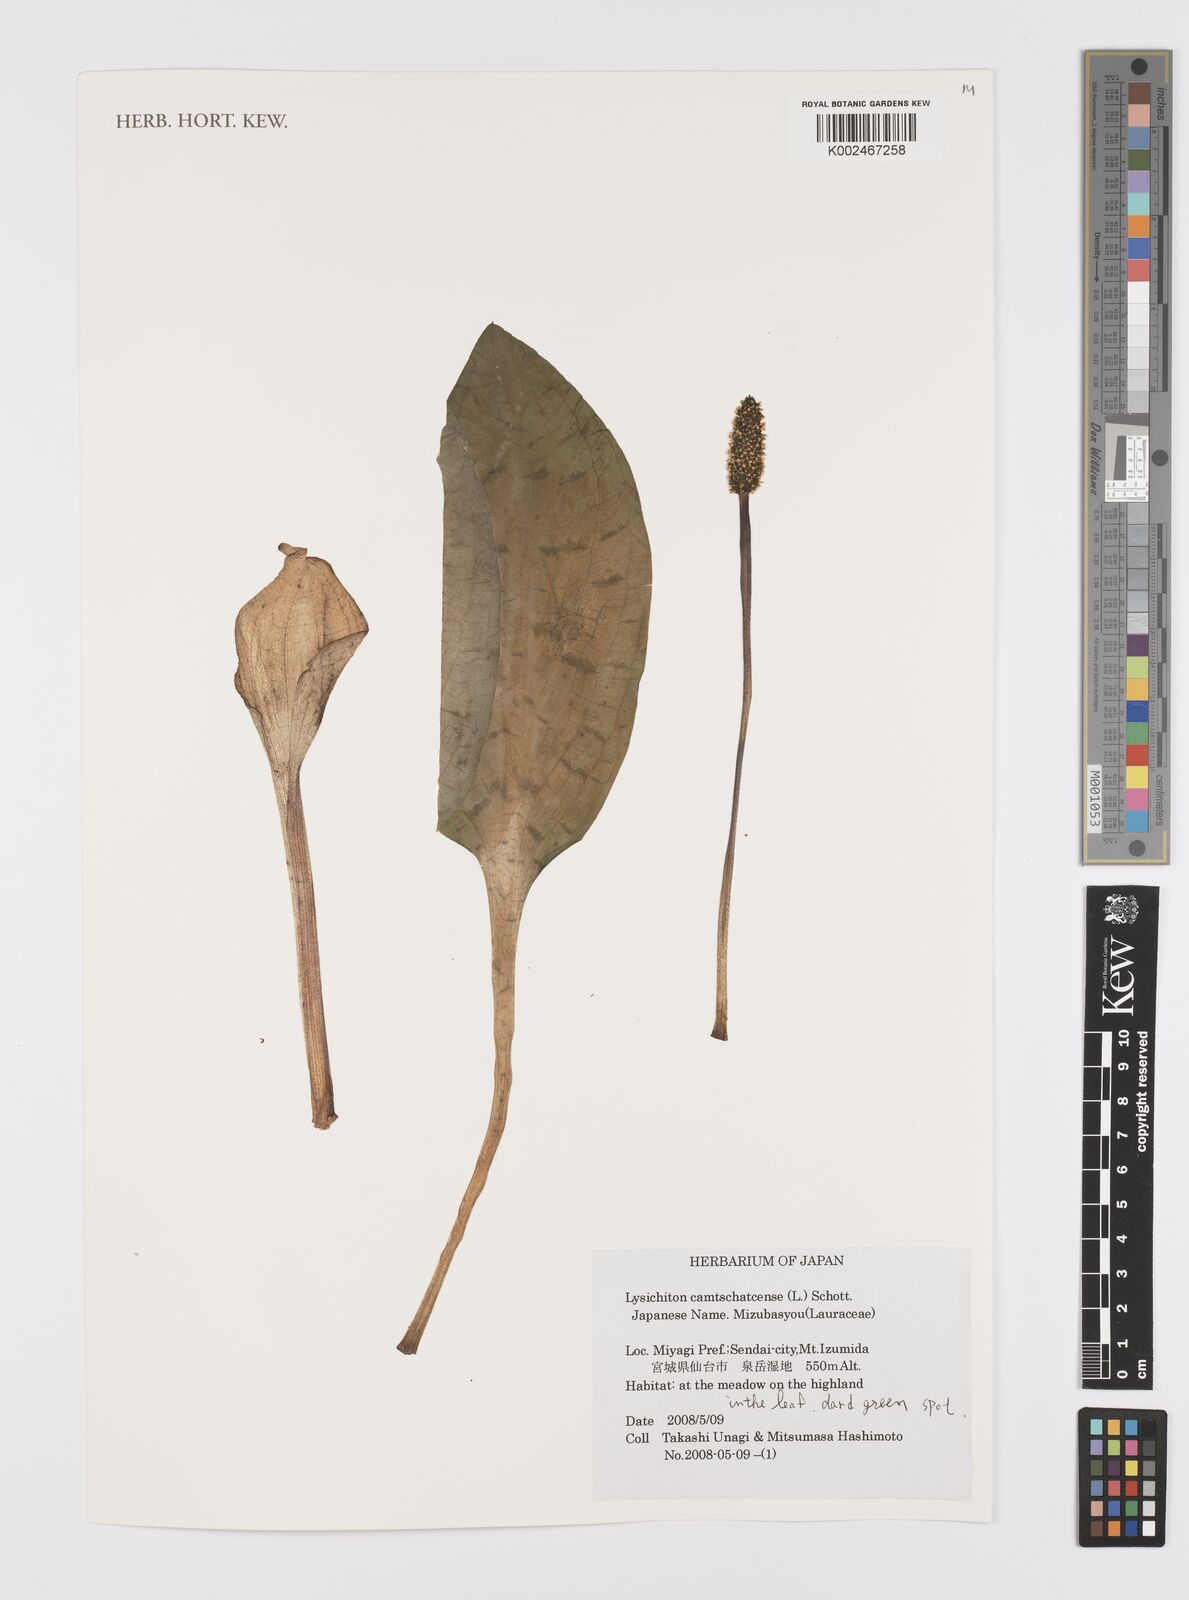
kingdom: Plantae
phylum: Tracheophyta
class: Liliopsida
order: Alismatales
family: Araceae
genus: Lysichiton
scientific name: Lysichiton camtschatcensis
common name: Asian skunk-cabbage
